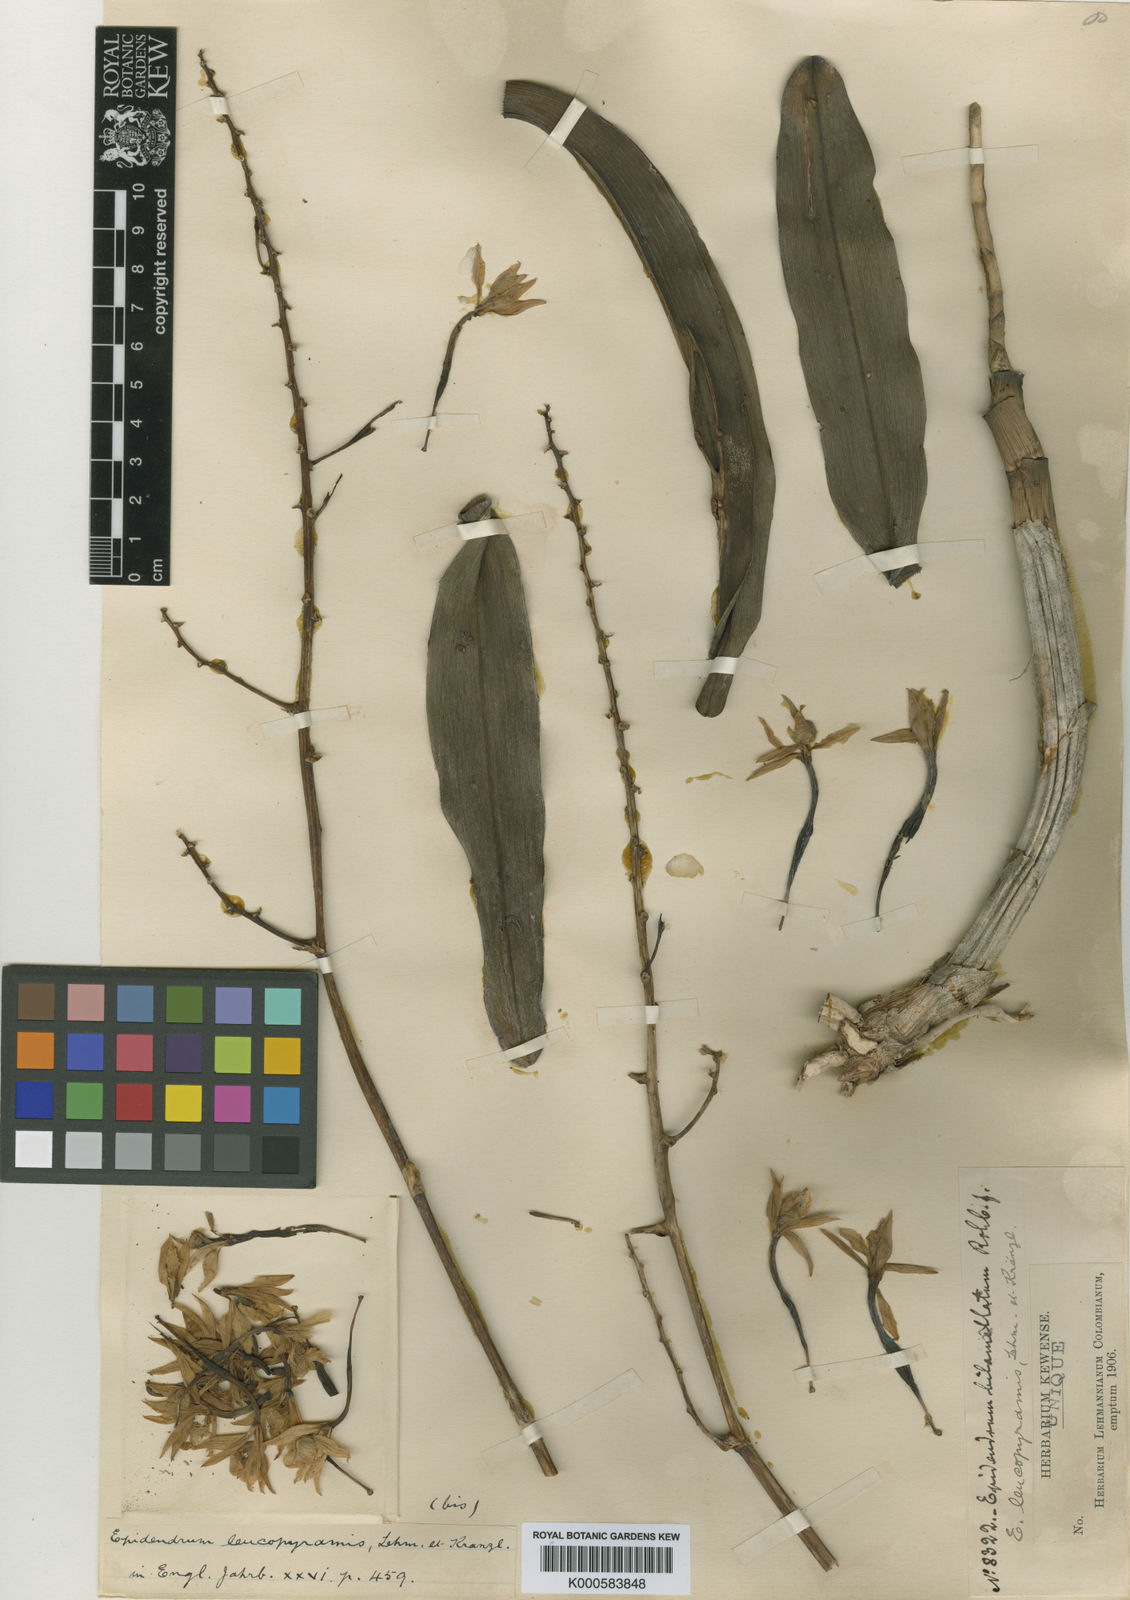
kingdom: Plantae
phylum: Tracheophyta
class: Liliopsida
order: Asparagales
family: Orchidaceae
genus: Epidendrum
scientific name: Epidendrum bracteolatum
